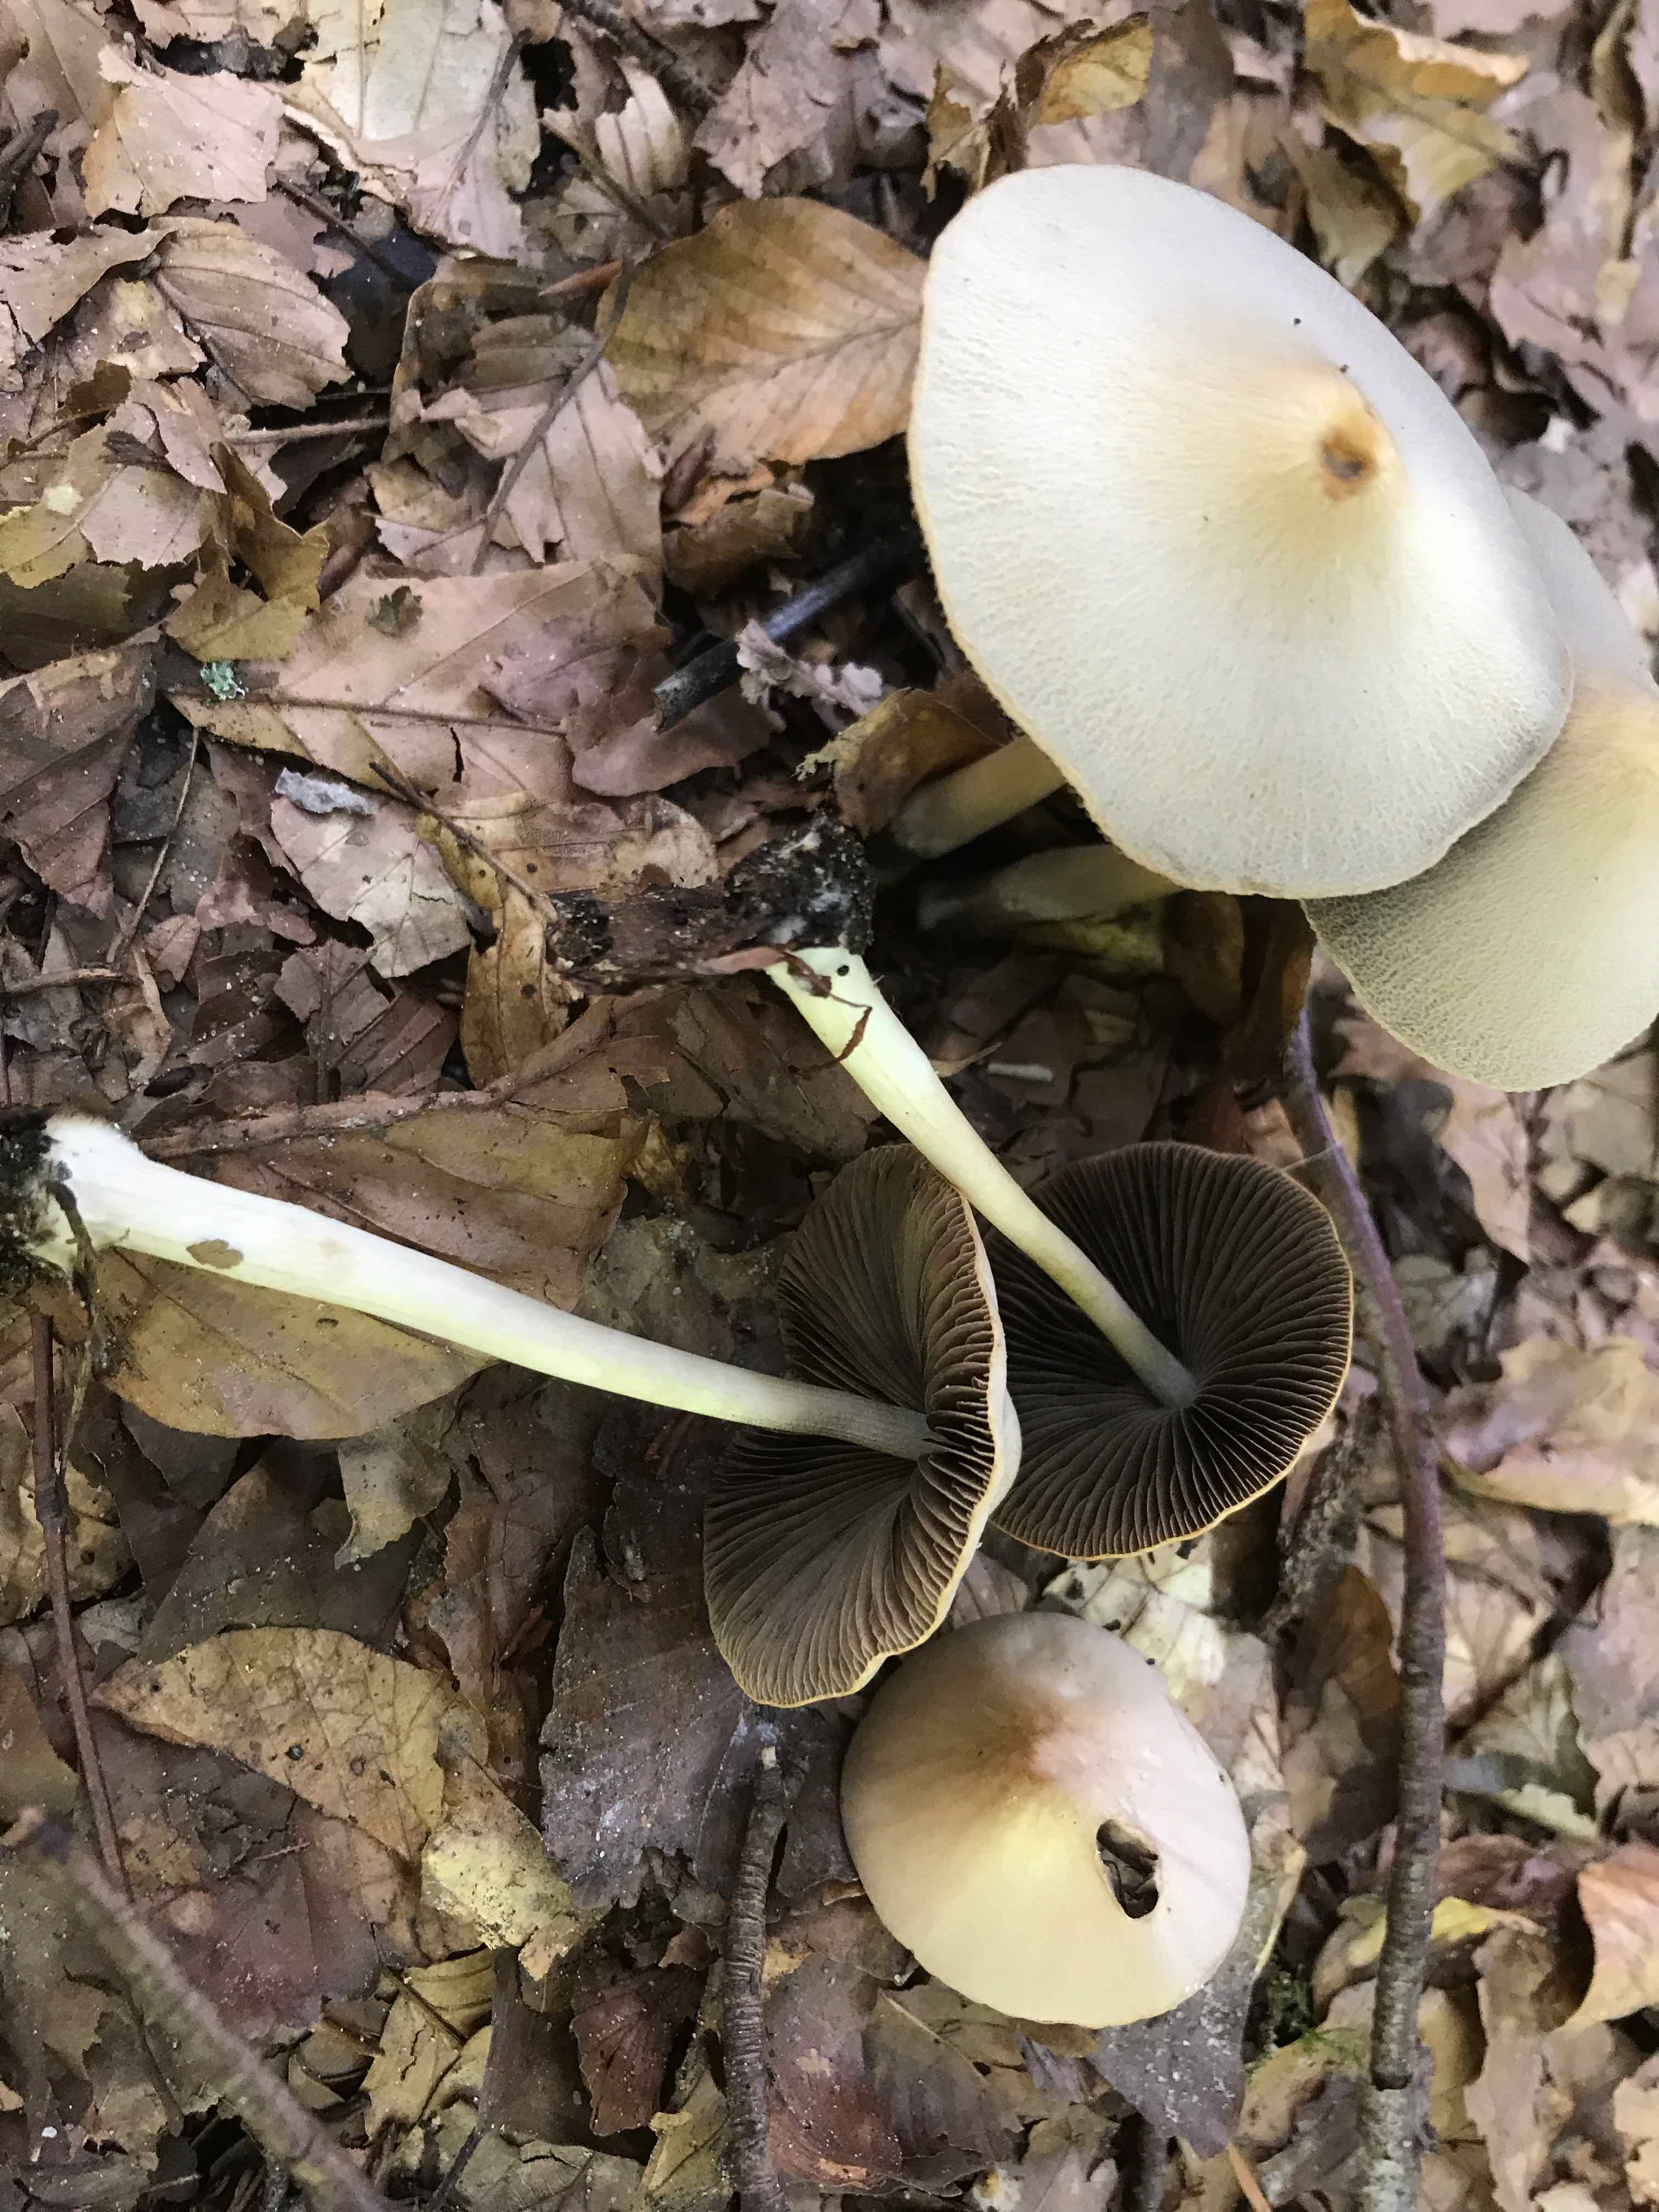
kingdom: Fungi
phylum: Basidiomycota
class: Agaricomycetes
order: Agaricales
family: Psathyrellaceae
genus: Psathyrella
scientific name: Psathyrella
